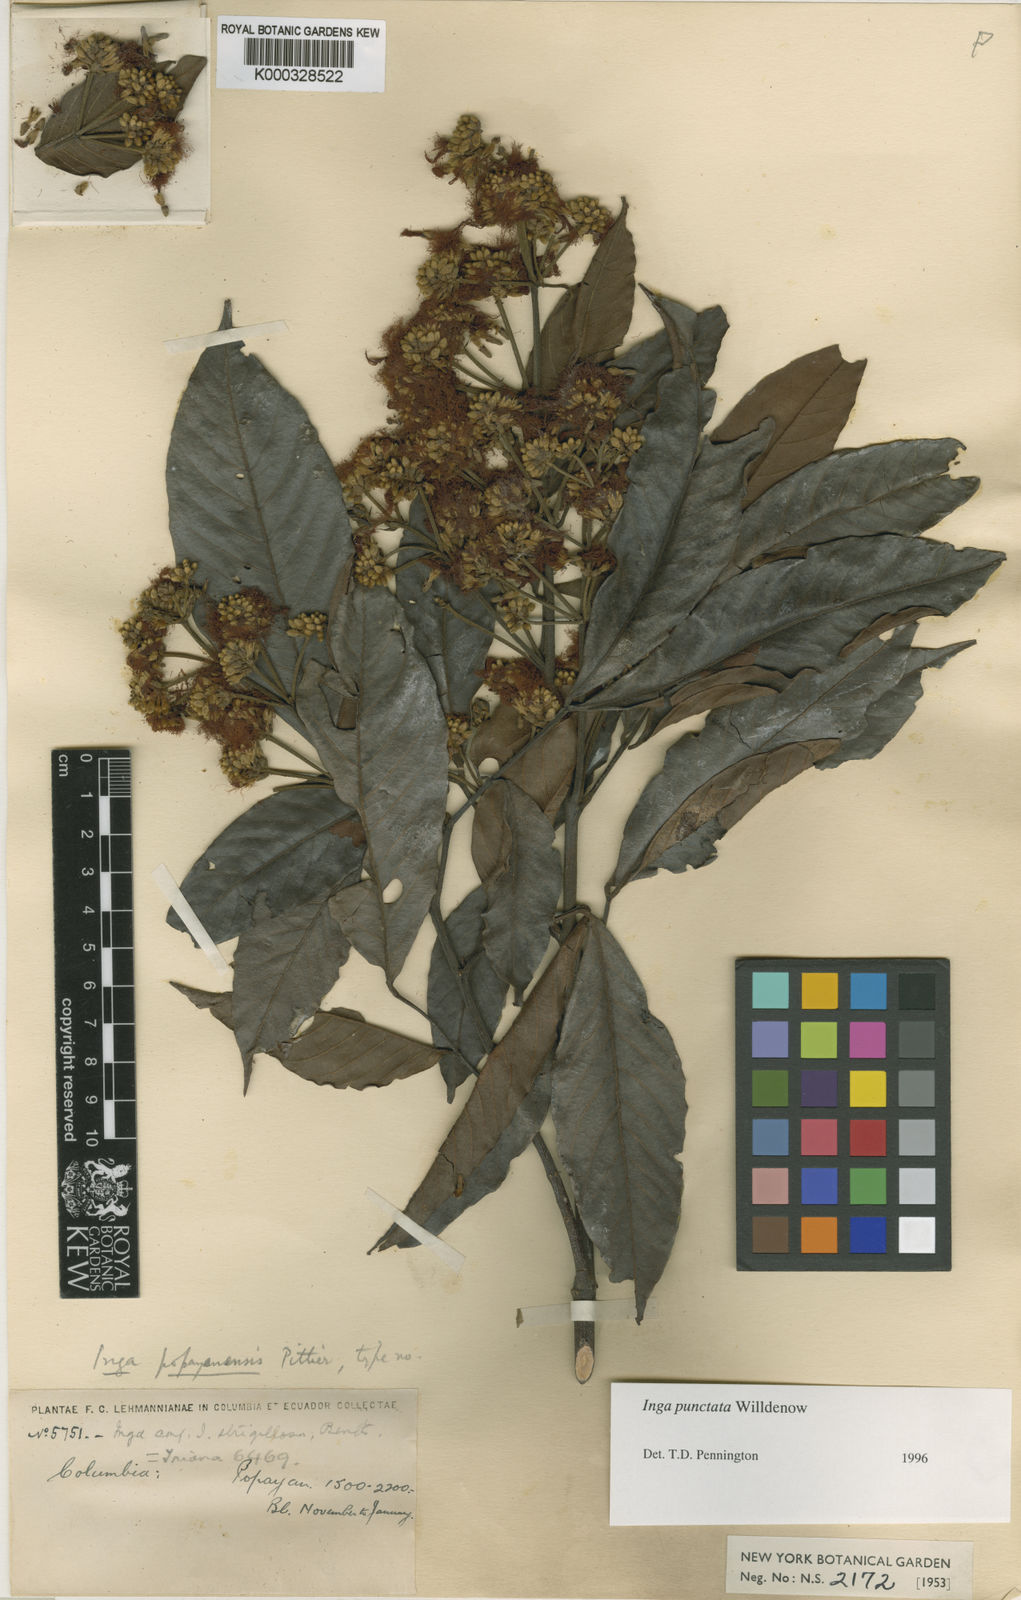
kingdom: Plantae
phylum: Tracheophyta
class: Magnoliopsida
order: Fabales
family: Fabaceae
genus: Inga
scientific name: Inga punctata
